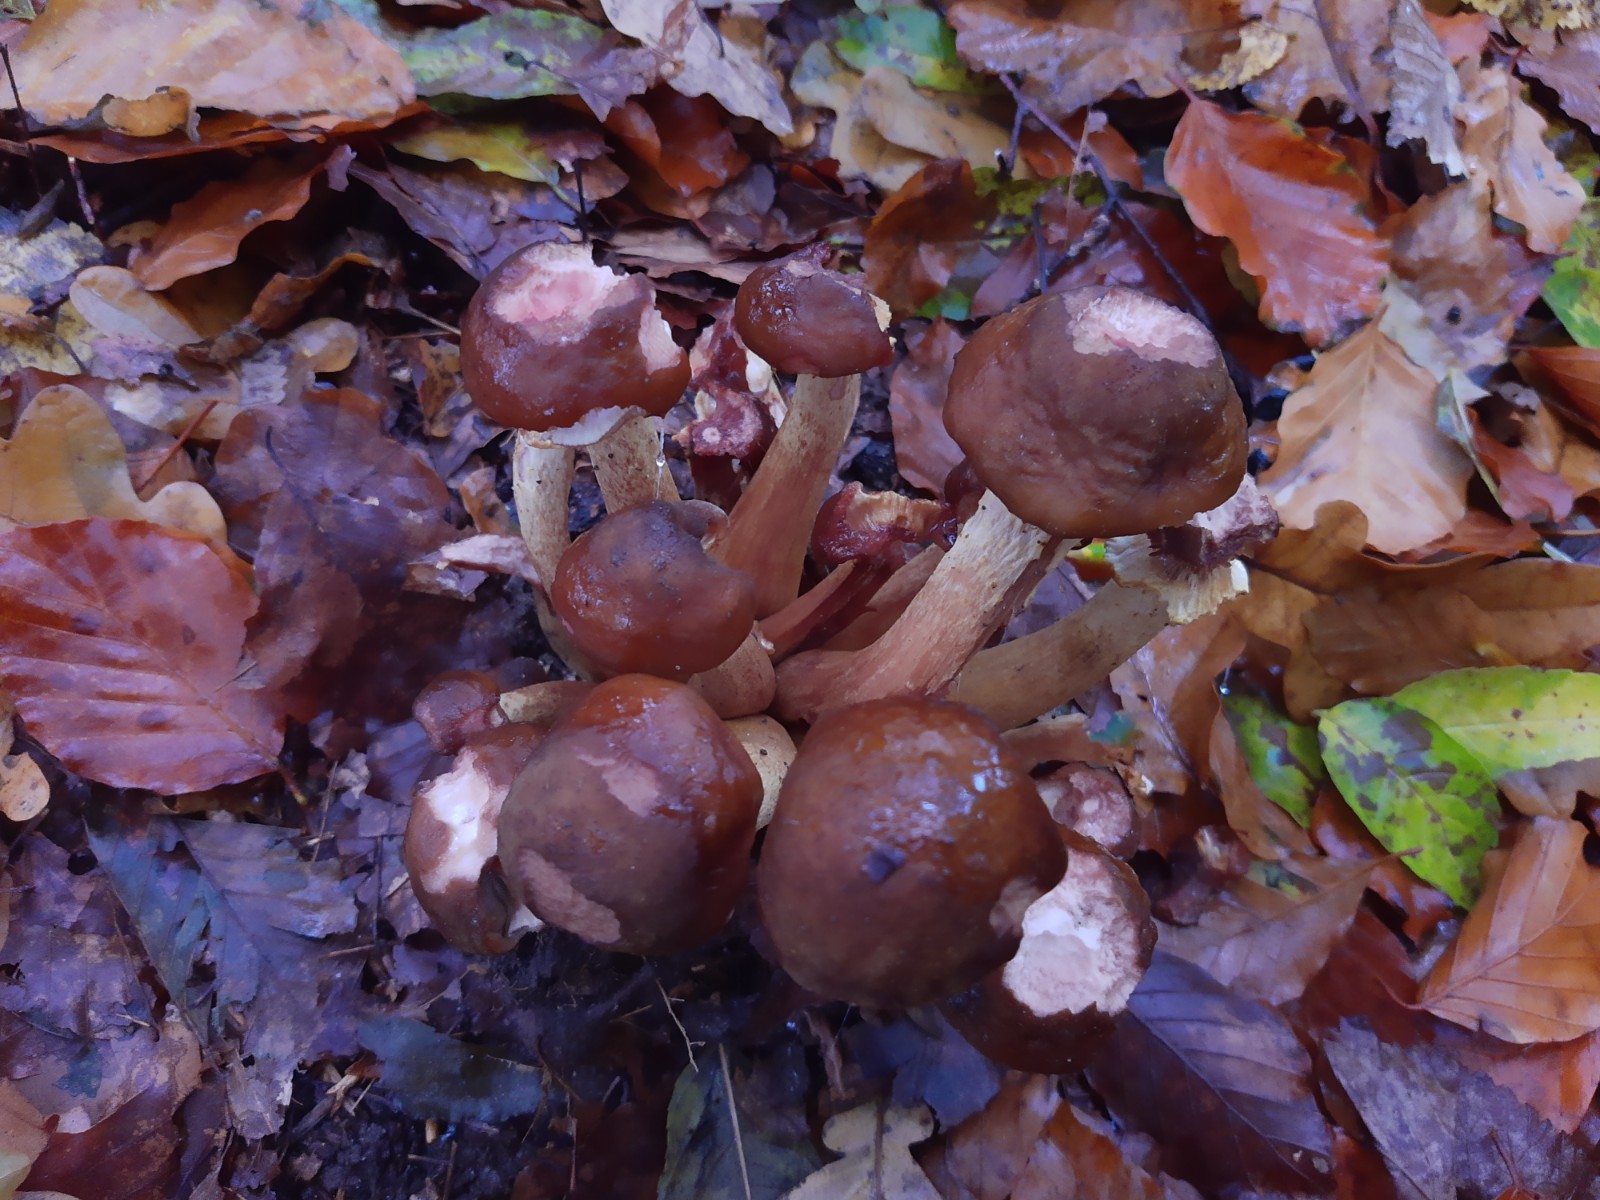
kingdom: Fungi
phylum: Basidiomycota
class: Agaricomycetes
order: Agaricales
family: Physalacriaceae
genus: Armillaria
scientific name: Armillaria lutea
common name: køllestokket honningsvamp
